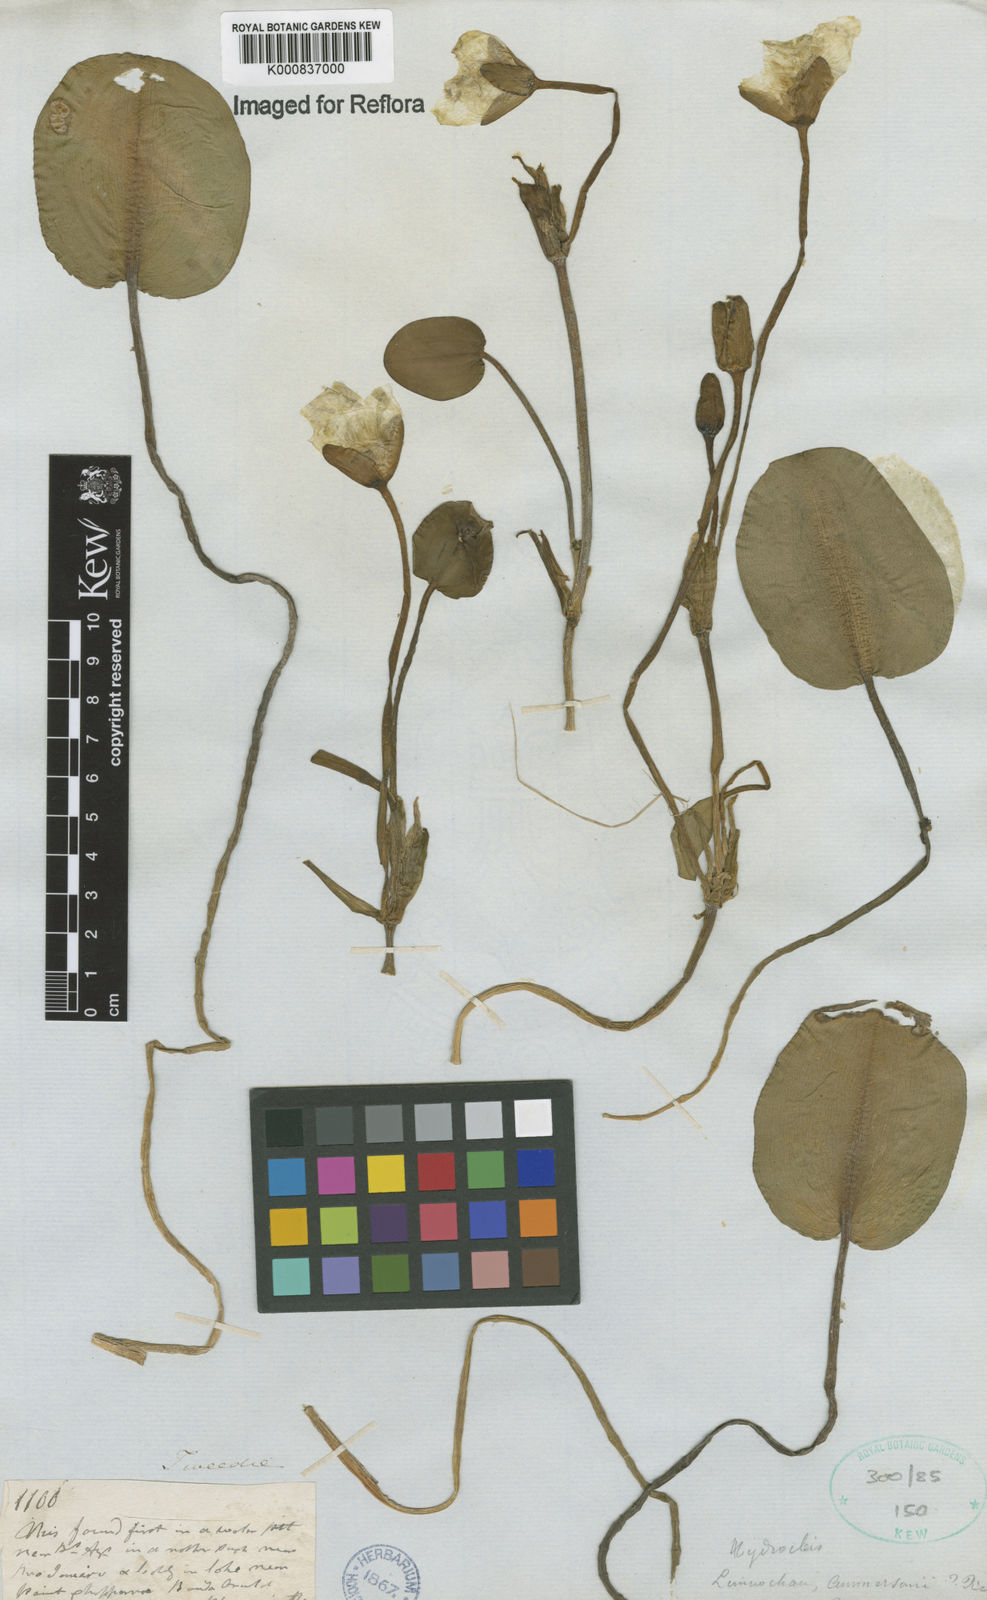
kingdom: Plantae
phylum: Tracheophyta
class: Liliopsida
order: Alismatales
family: Alismataceae
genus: Hydrocleys
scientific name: Hydrocleys nymphoides
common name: Water-poppy
